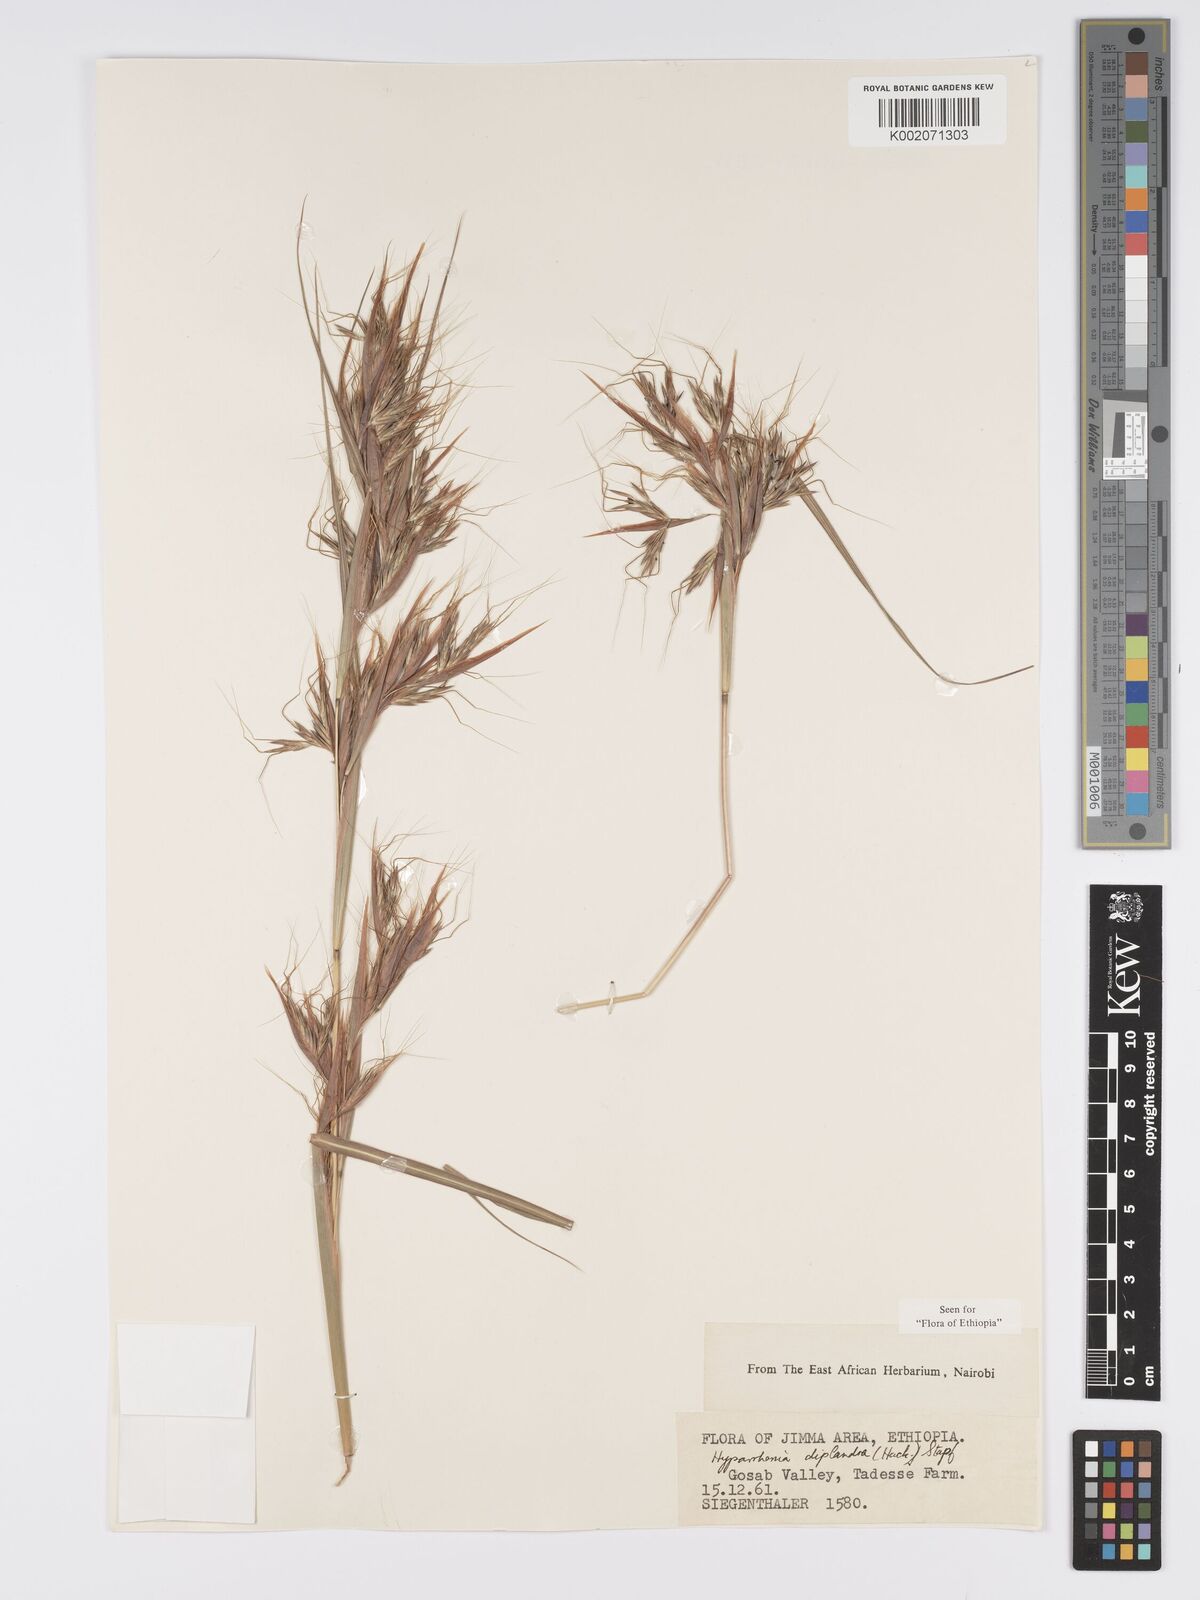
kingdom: Plantae
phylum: Tracheophyta
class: Liliopsida
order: Poales
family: Poaceae
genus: Hyparrhenia
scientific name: Hyparrhenia diplandra
